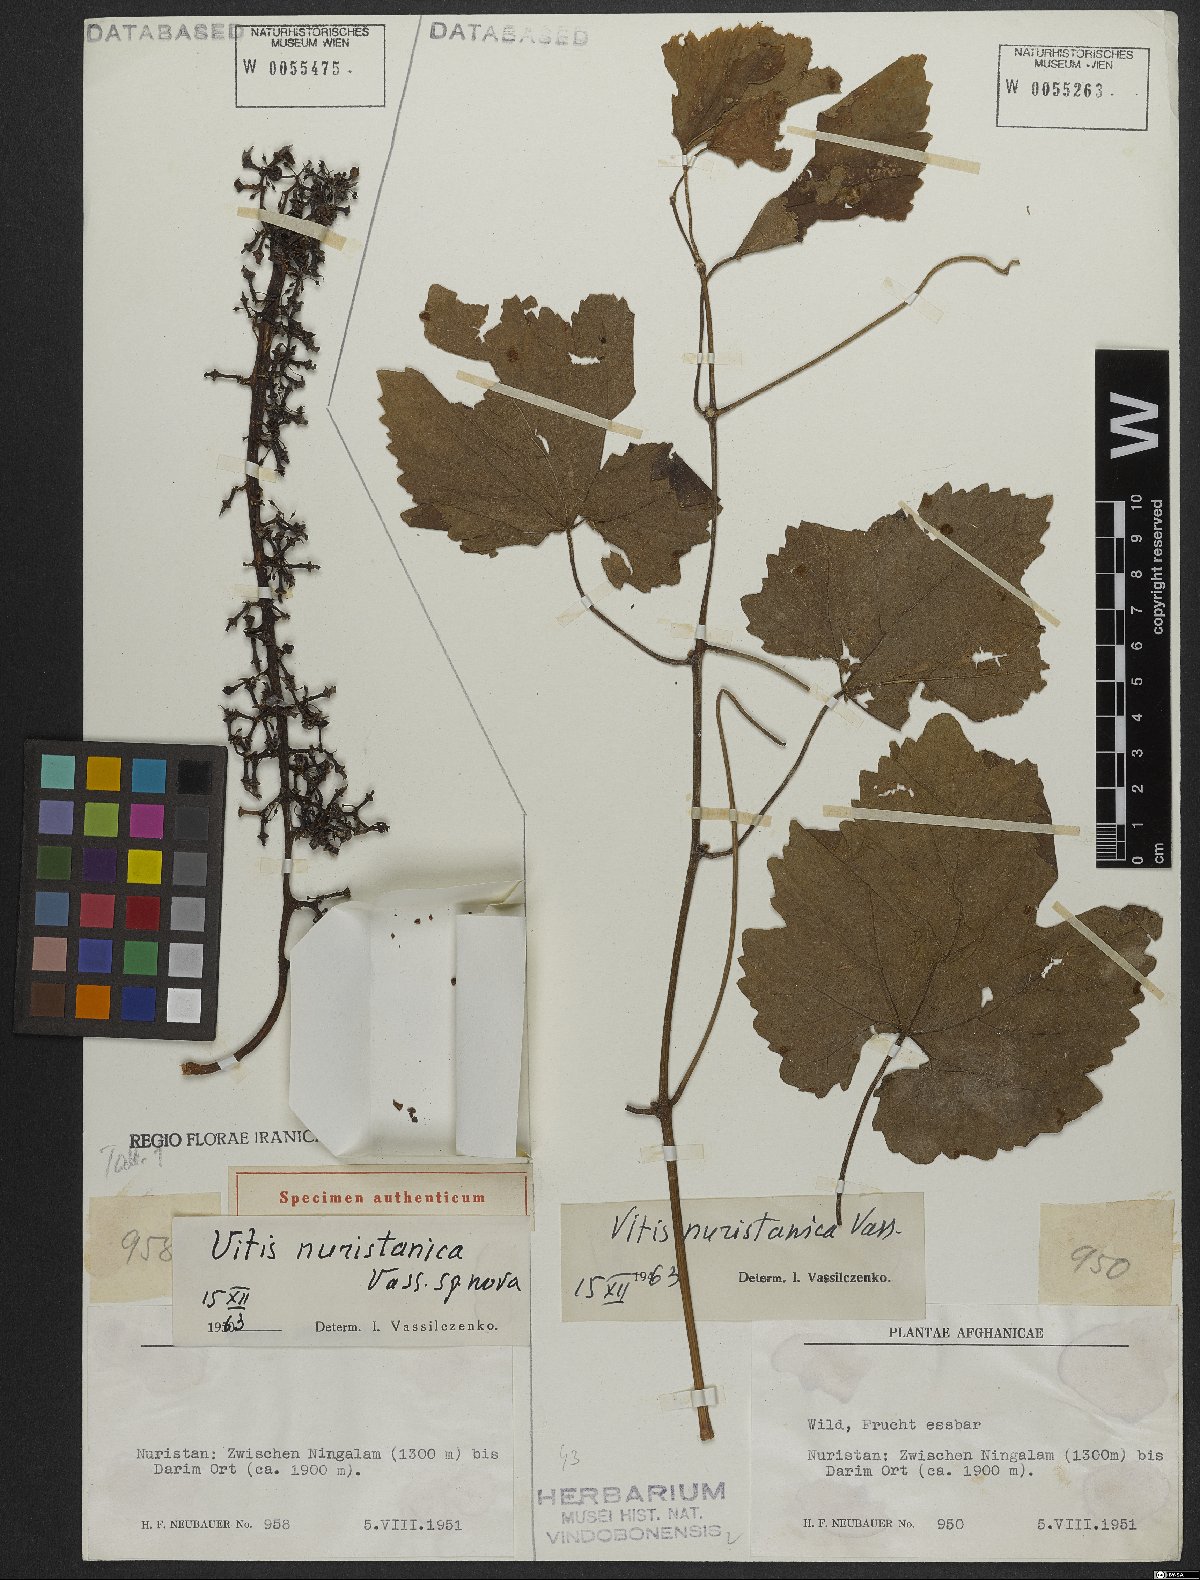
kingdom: Plantae
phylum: Tracheophyta
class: Magnoliopsida
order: Vitales
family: Vitaceae
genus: Vitis
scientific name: Vitis nuristanica
